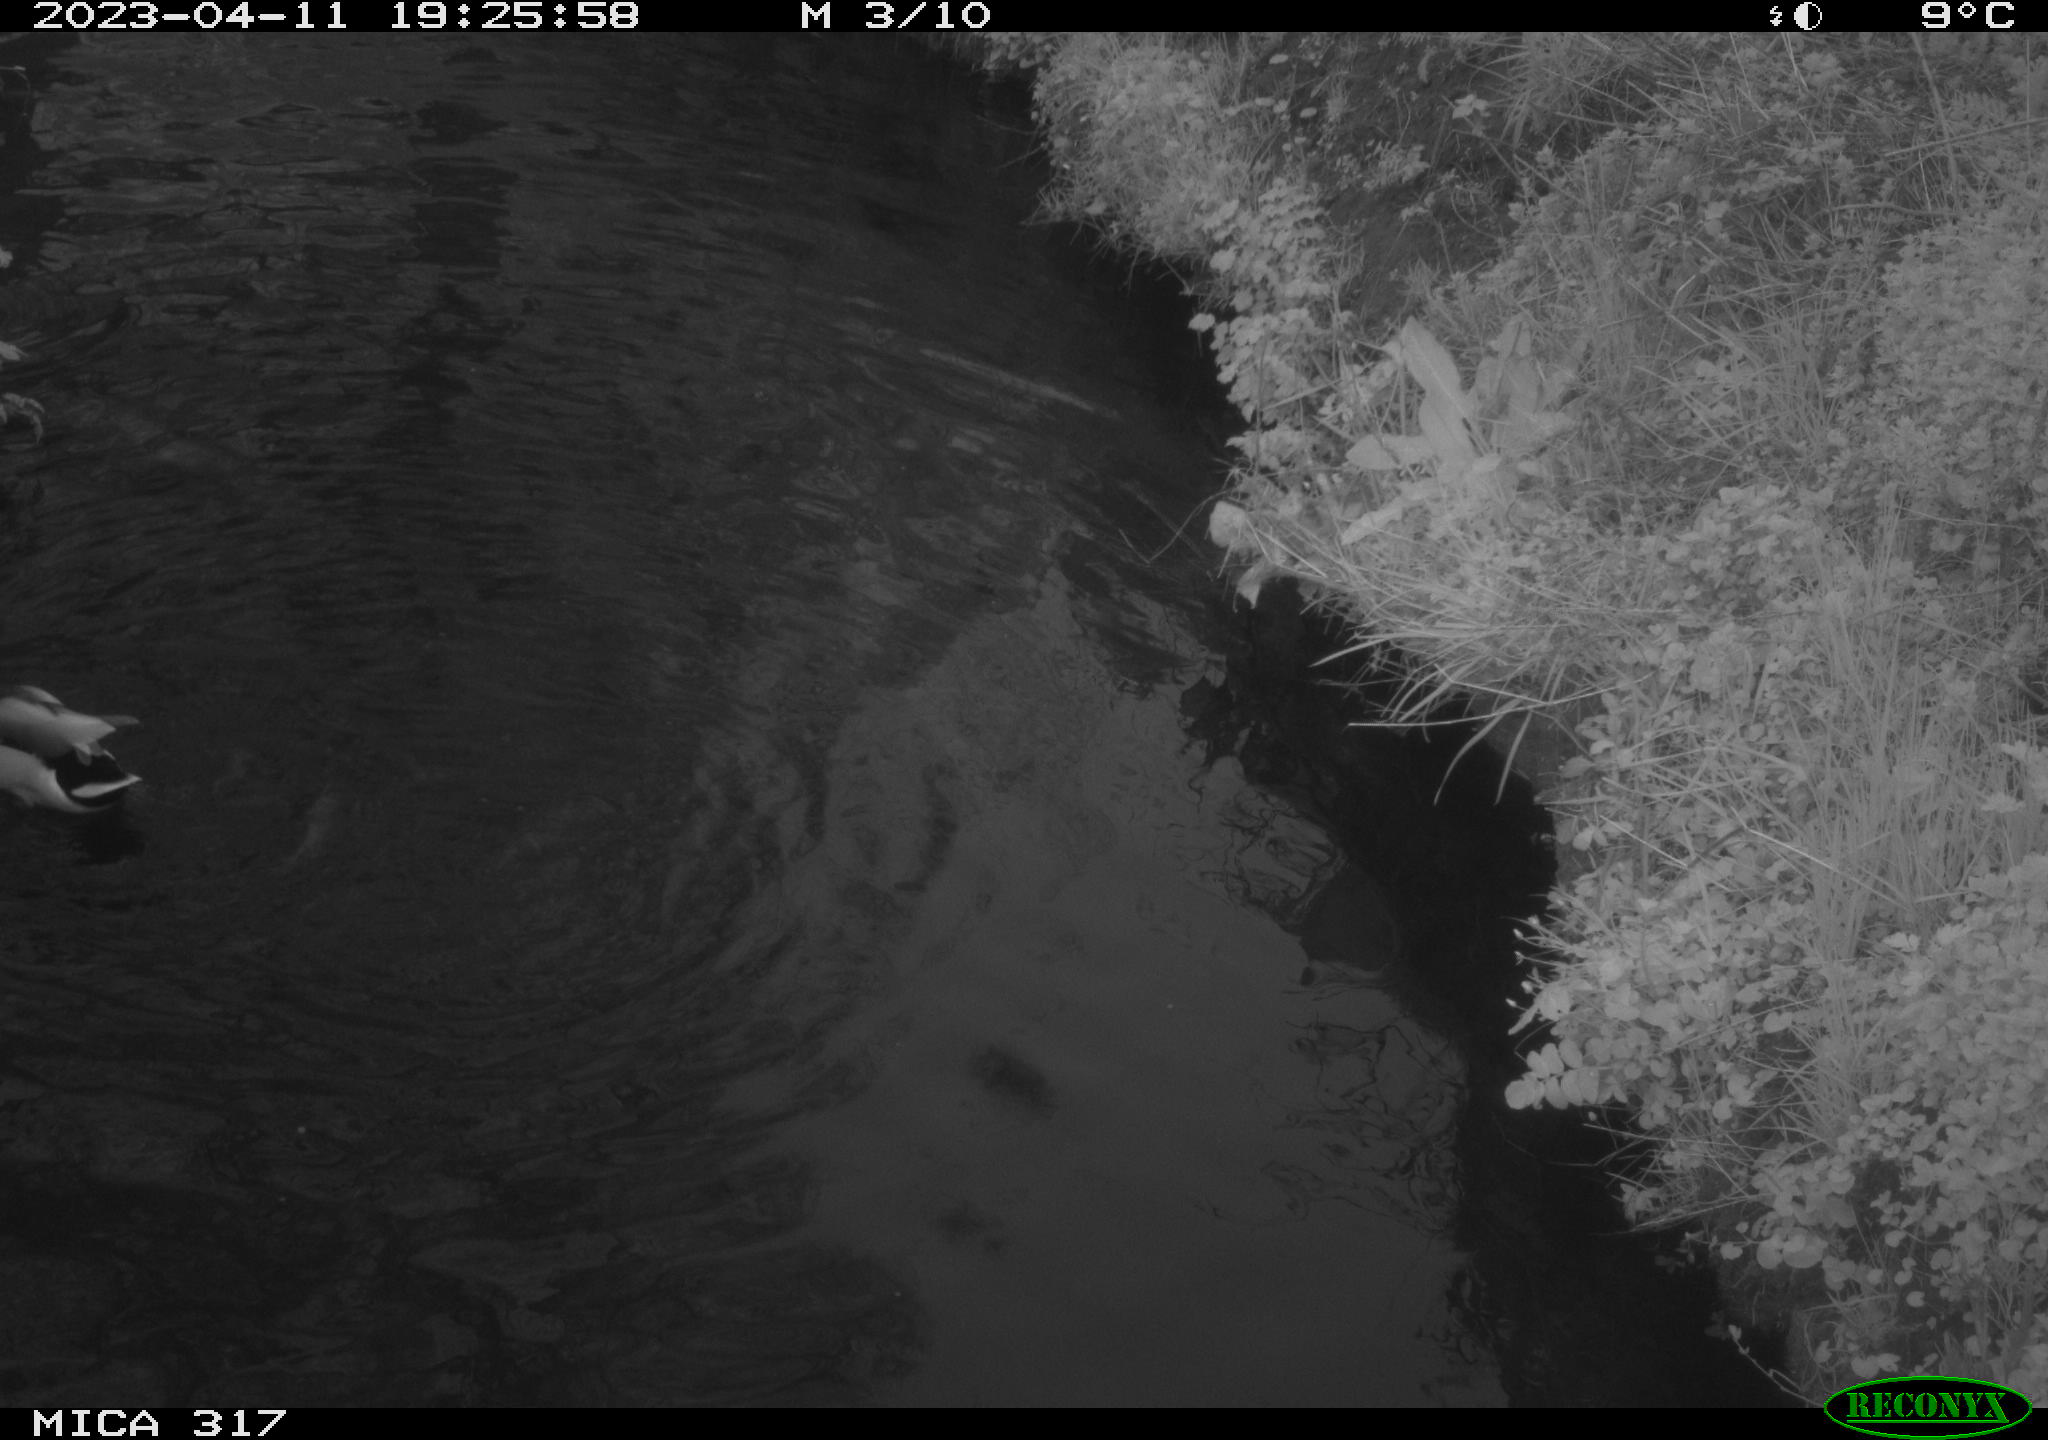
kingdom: Animalia
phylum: Chordata
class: Aves
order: Anseriformes
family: Anatidae
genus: Anas
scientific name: Anas
